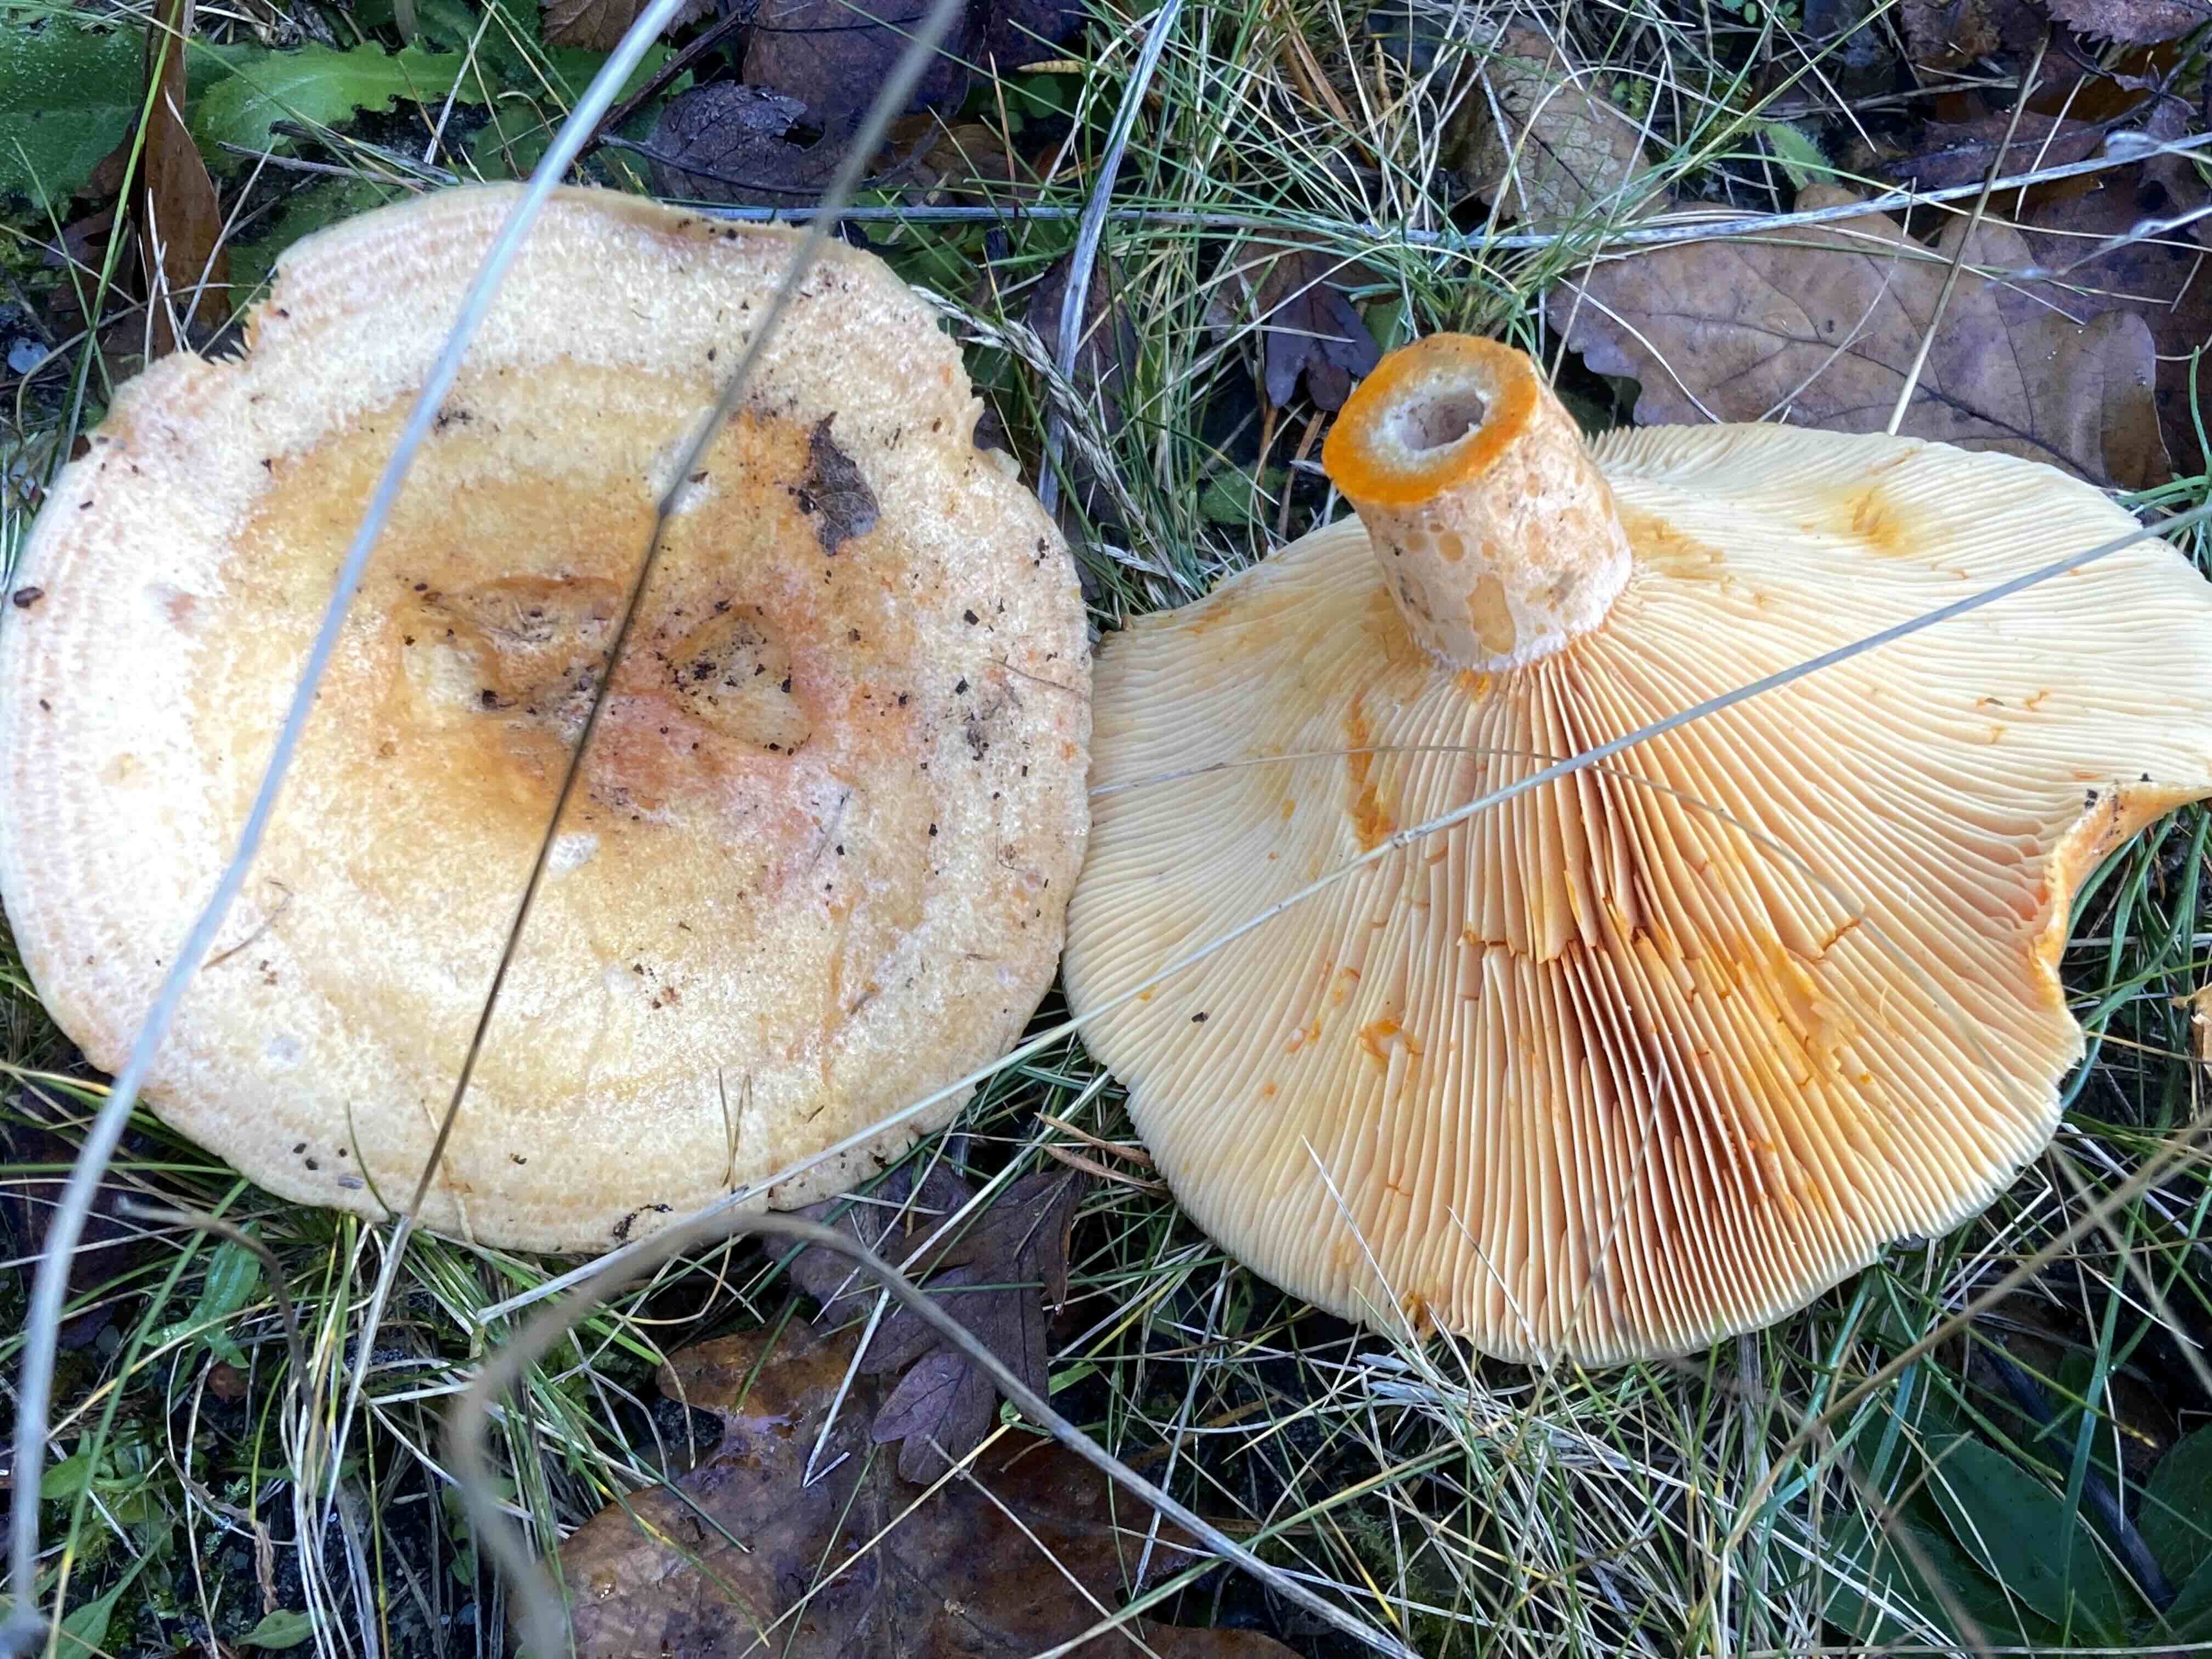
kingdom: Fungi
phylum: Basidiomycota
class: Agaricomycetes
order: Russulales
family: Russulaceae
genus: Lactarius
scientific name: Lactarius deliciosus
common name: velsmagende mælkehat
